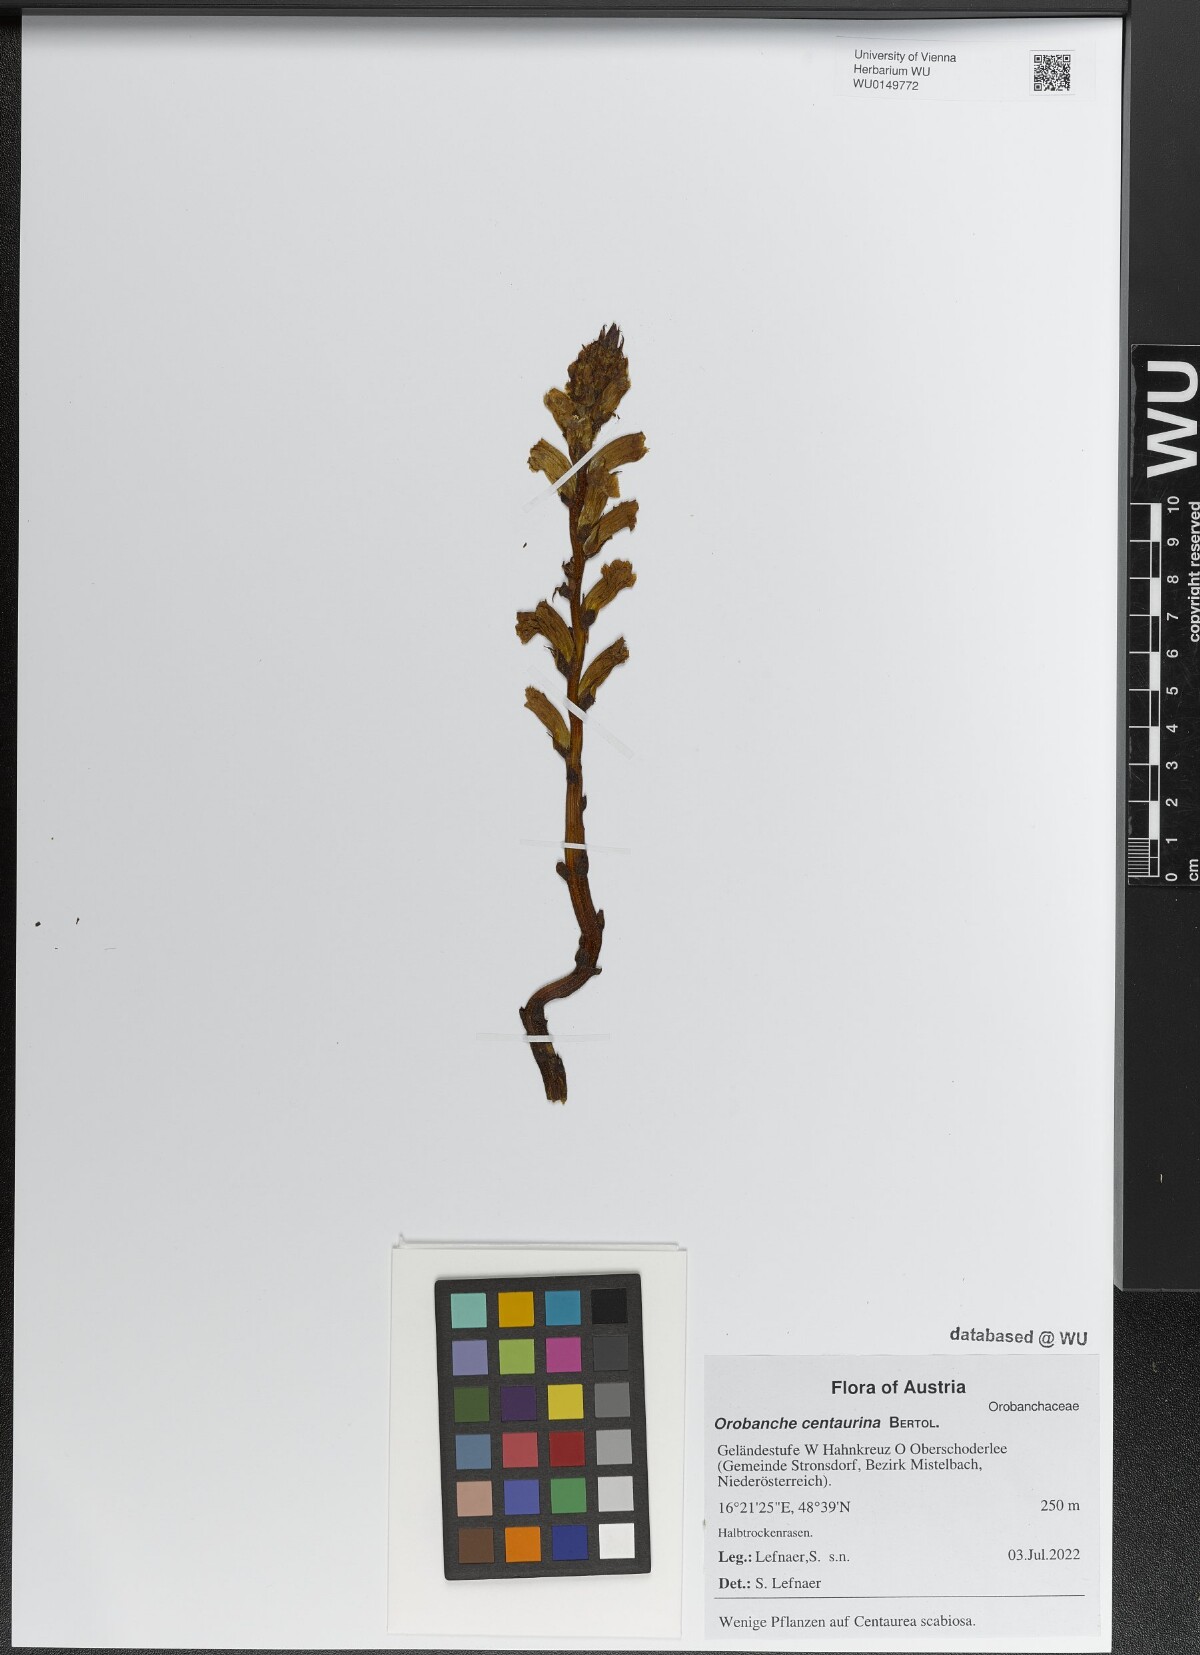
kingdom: Plantae
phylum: Tracheophyta
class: Magnoliopsida
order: Lamiales
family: Orobanchaceae
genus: Orobanche
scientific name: Orobanche centaurina
